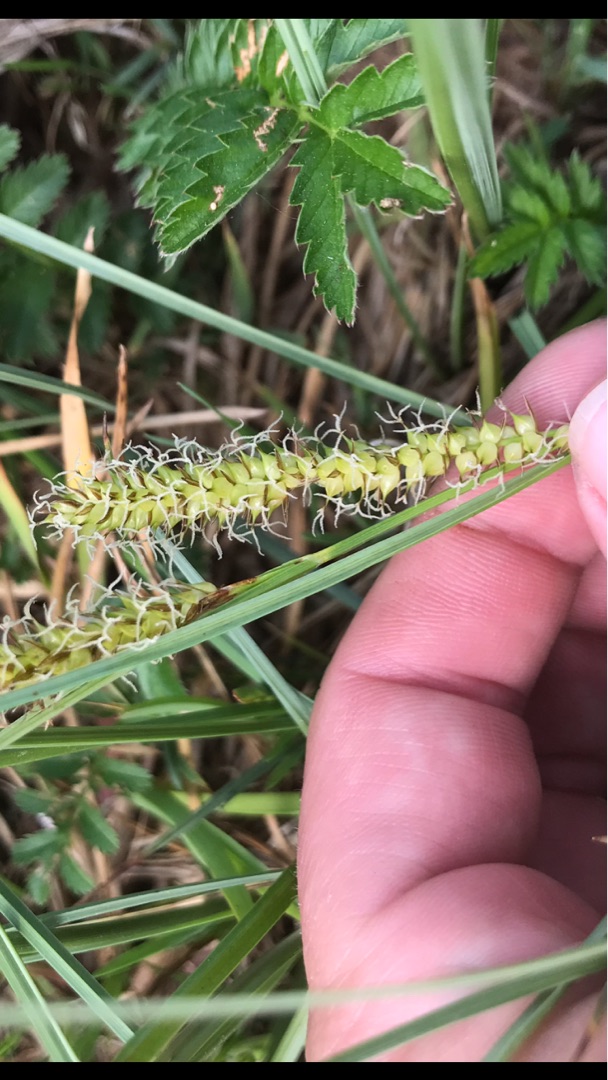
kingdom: Plantae
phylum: Tracheophyta
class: Liliopsida
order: Poales
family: Cyperaceae
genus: Carex
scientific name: Carex rostrata
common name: Næb-star
